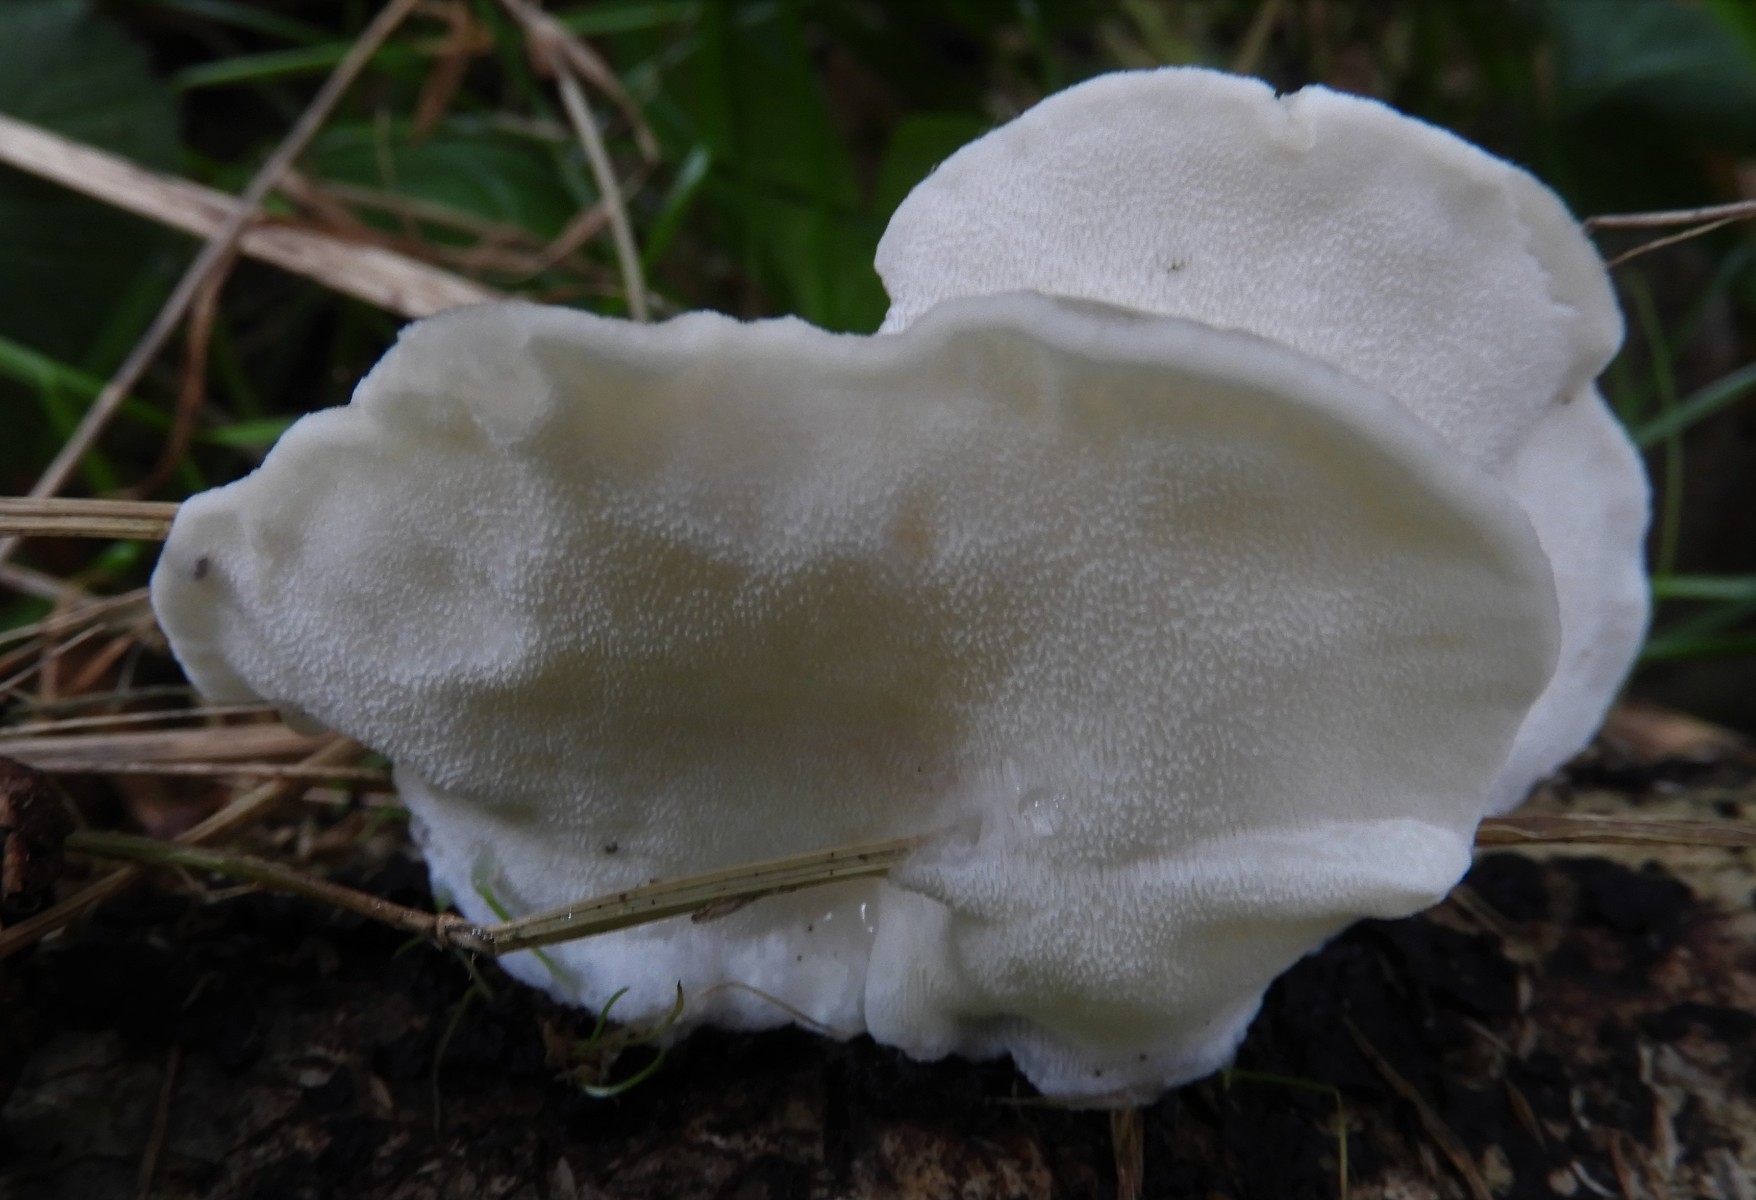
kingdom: Fungi
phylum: Basidiomycota
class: Agaricomycetes
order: Polyporales
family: Incrustoporiaceae
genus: Tyromyces
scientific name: Tyromyces lacteus
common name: mælkehvid kødporesvamp
